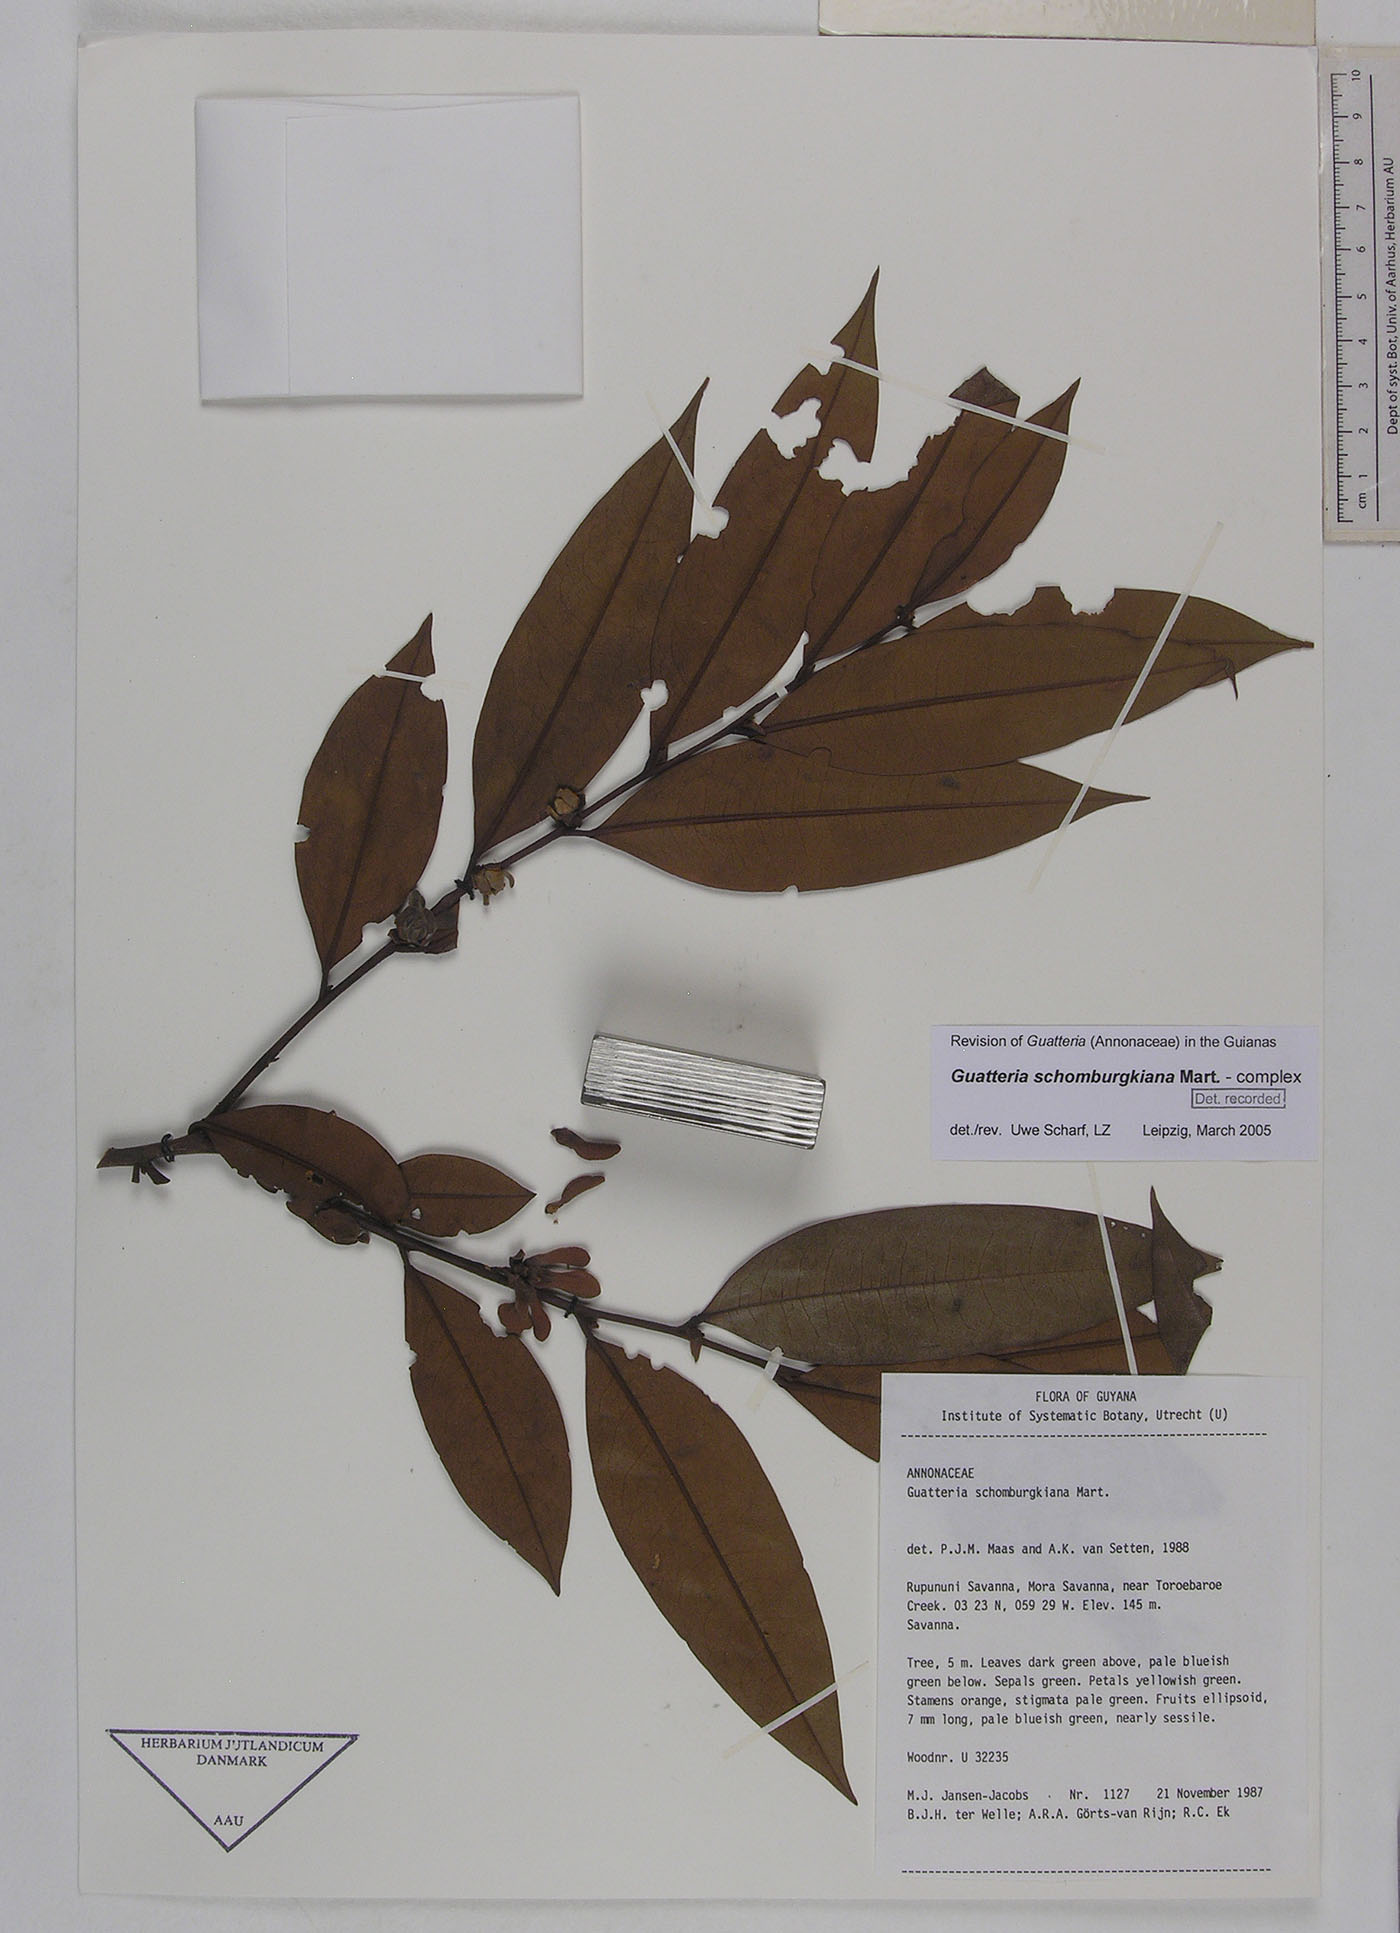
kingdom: Plantae
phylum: Tracheophyta
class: Magnoliopsida
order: Magnoliales
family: Annonaceae
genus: Guatteria
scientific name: Guatteria schomburgkiana
